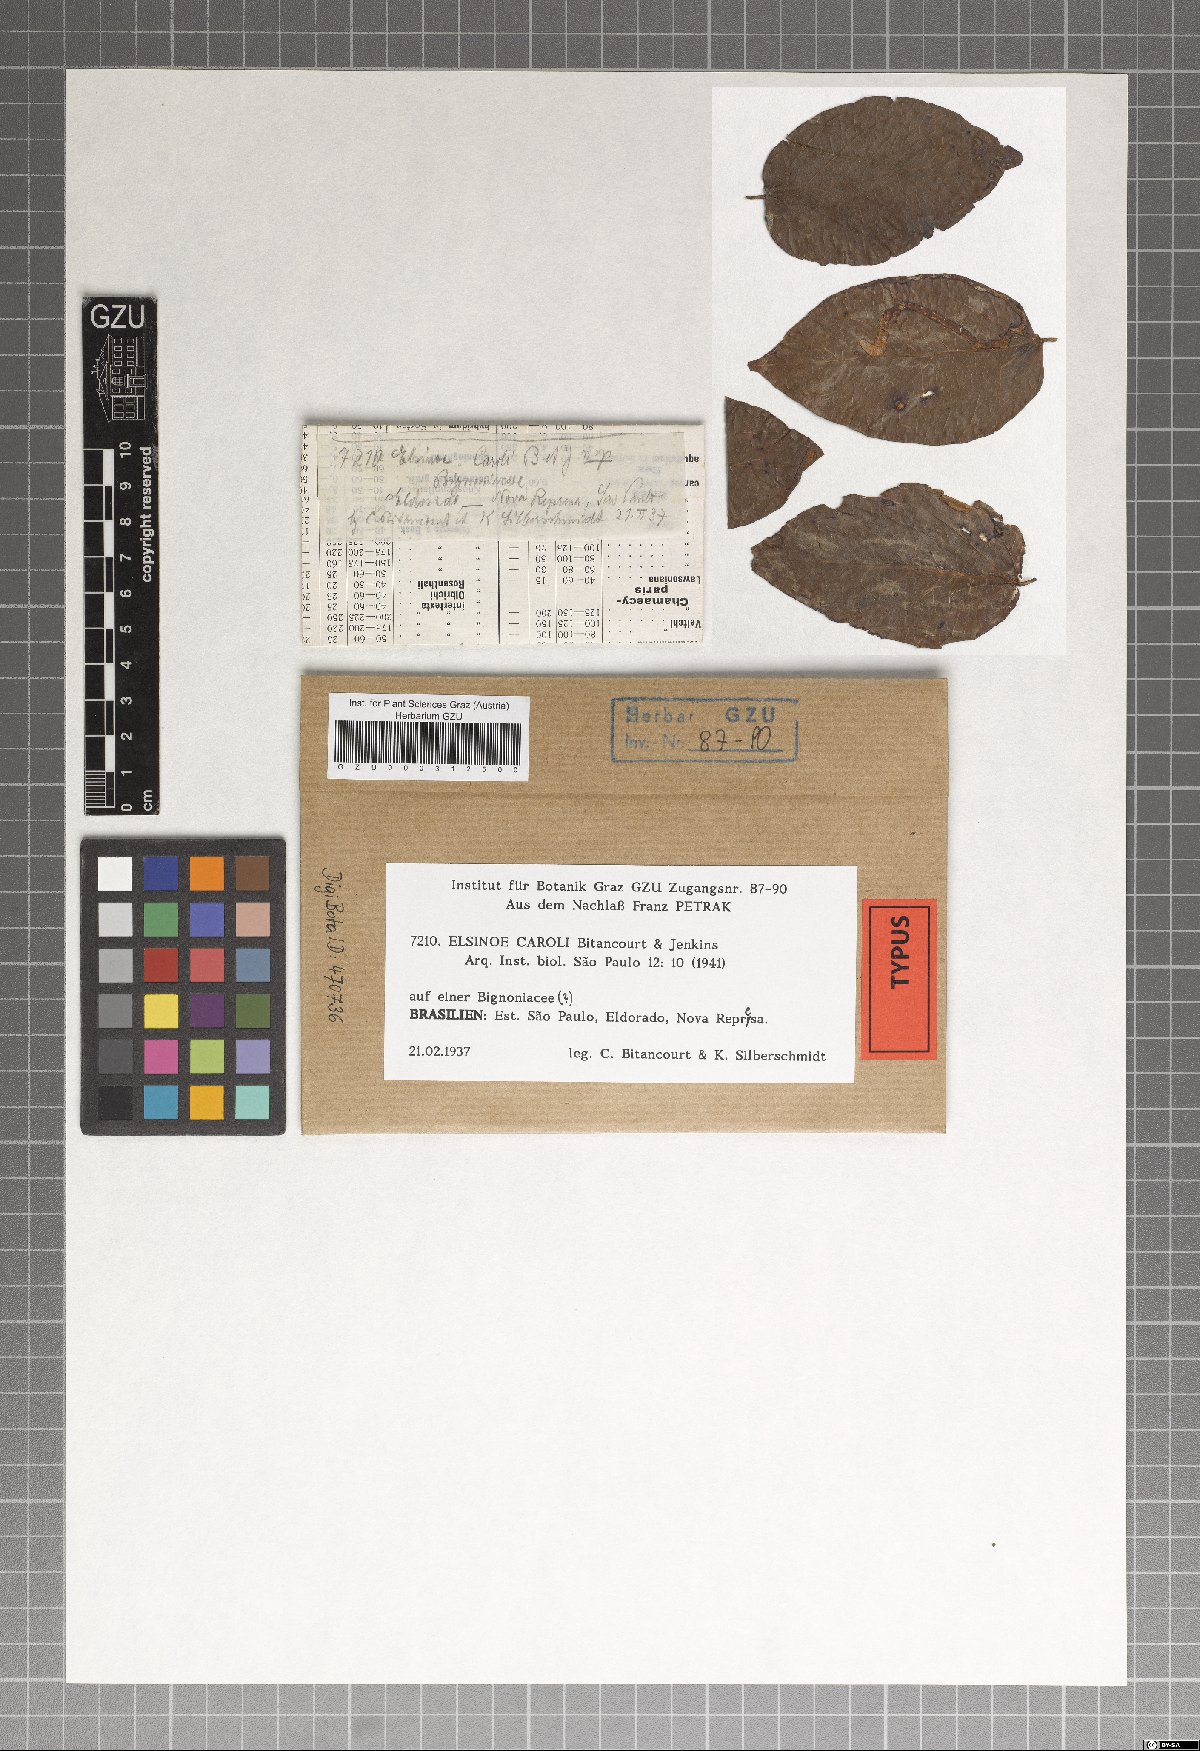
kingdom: Fungi
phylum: Ascomycota
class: Dothideomycetes
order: Myriangiales
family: Elsinoaceae
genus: Elsinoe
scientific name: Elsinoe caroli
